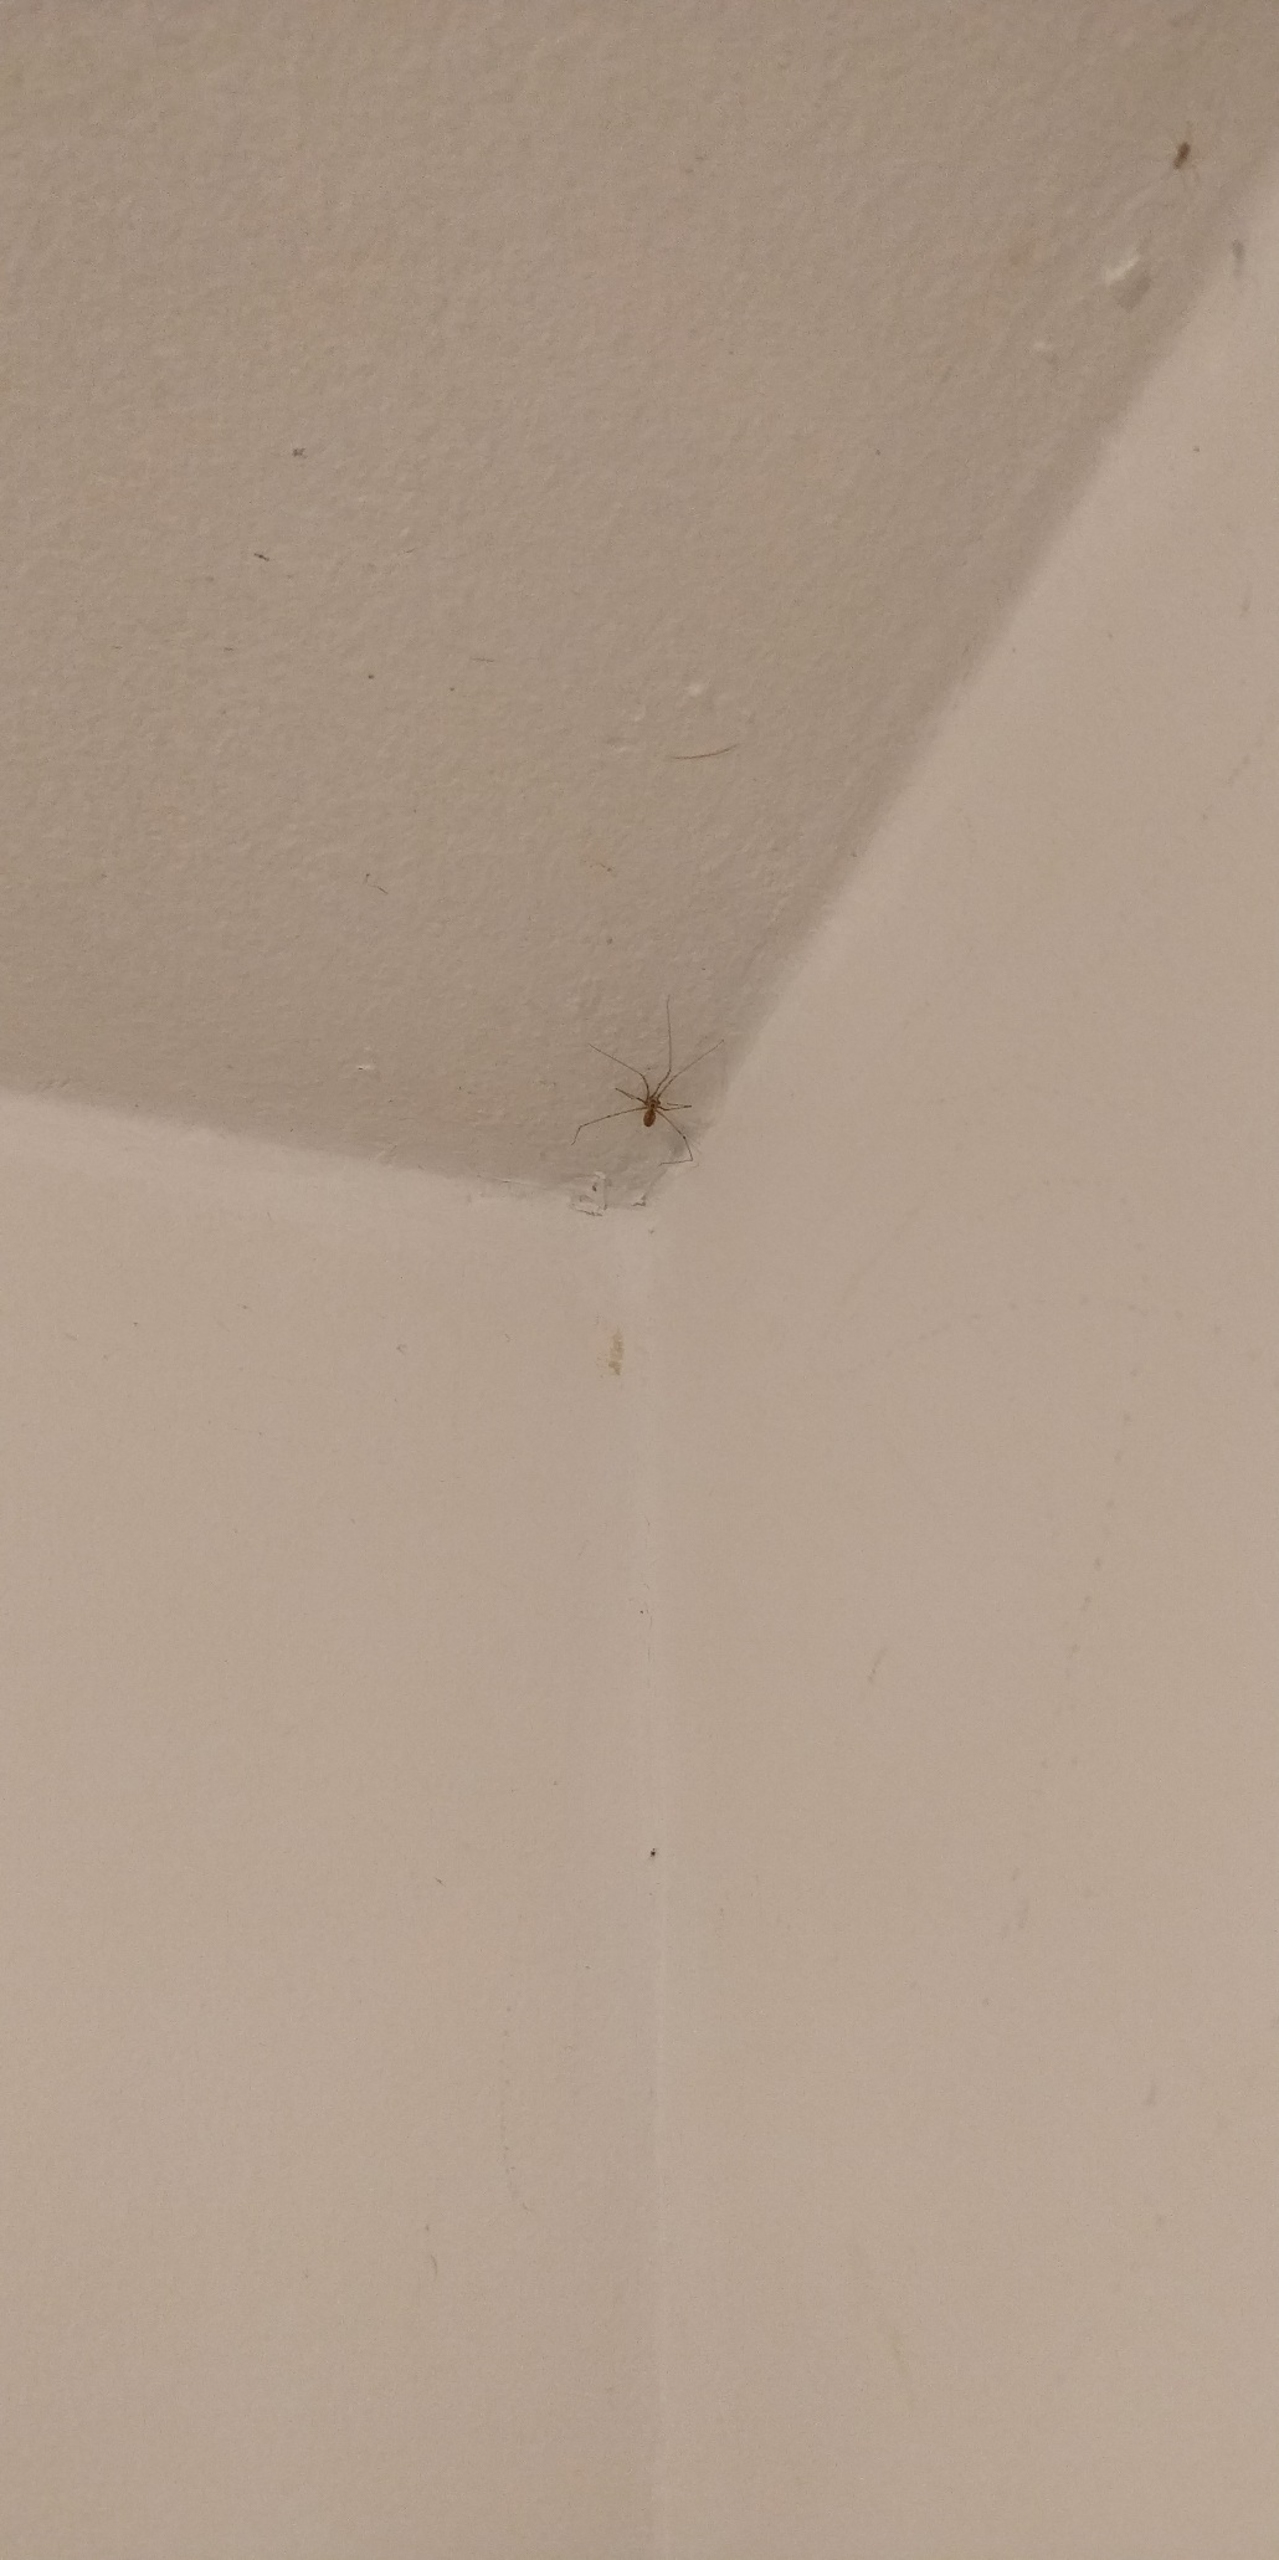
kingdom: Animalia
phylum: Arthropoda
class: Arachnida
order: Araneae
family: Pholcidae
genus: Pholcus
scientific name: Pholcus phalangioides
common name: Mejeredderkop
